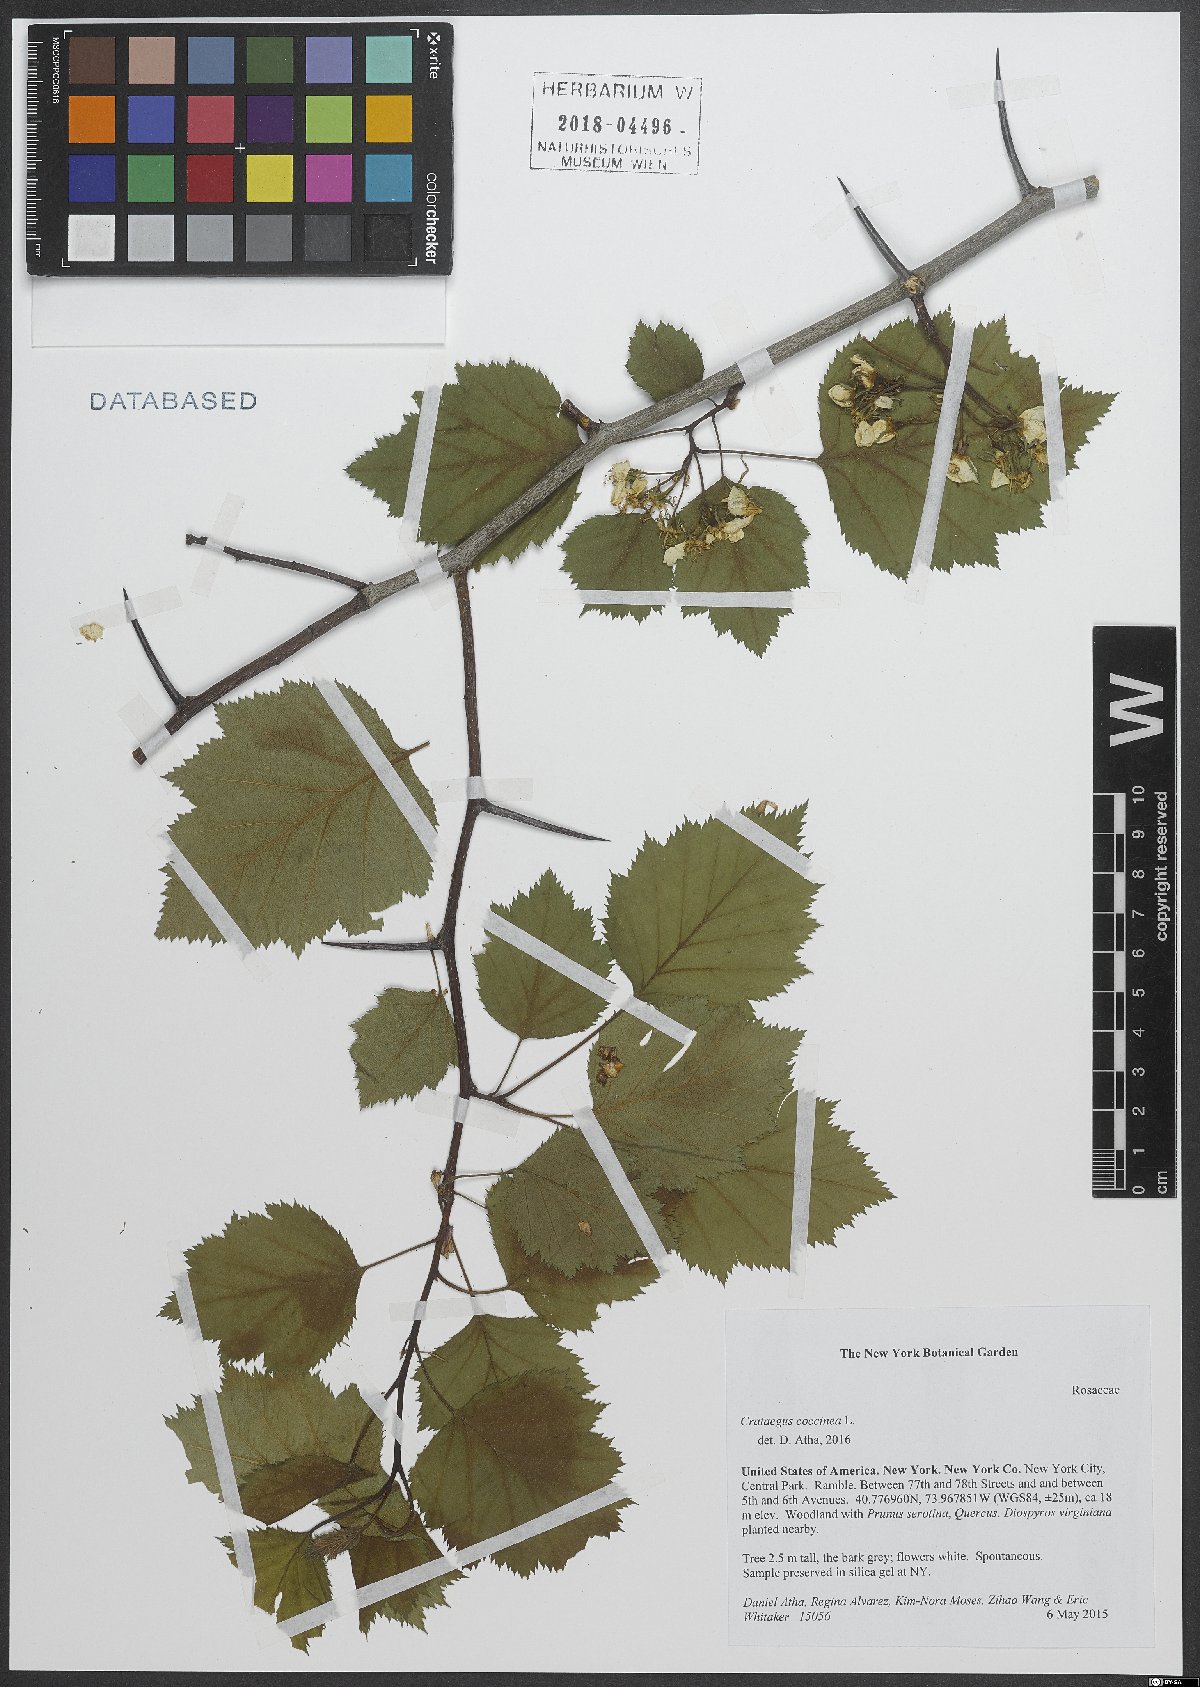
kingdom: Plantae
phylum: Tracheophyta
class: Magnoliopsida
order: Rosales
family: Rosaceae
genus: Crataegus
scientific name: Crataegus coccinea
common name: Scarlet hawthorn
